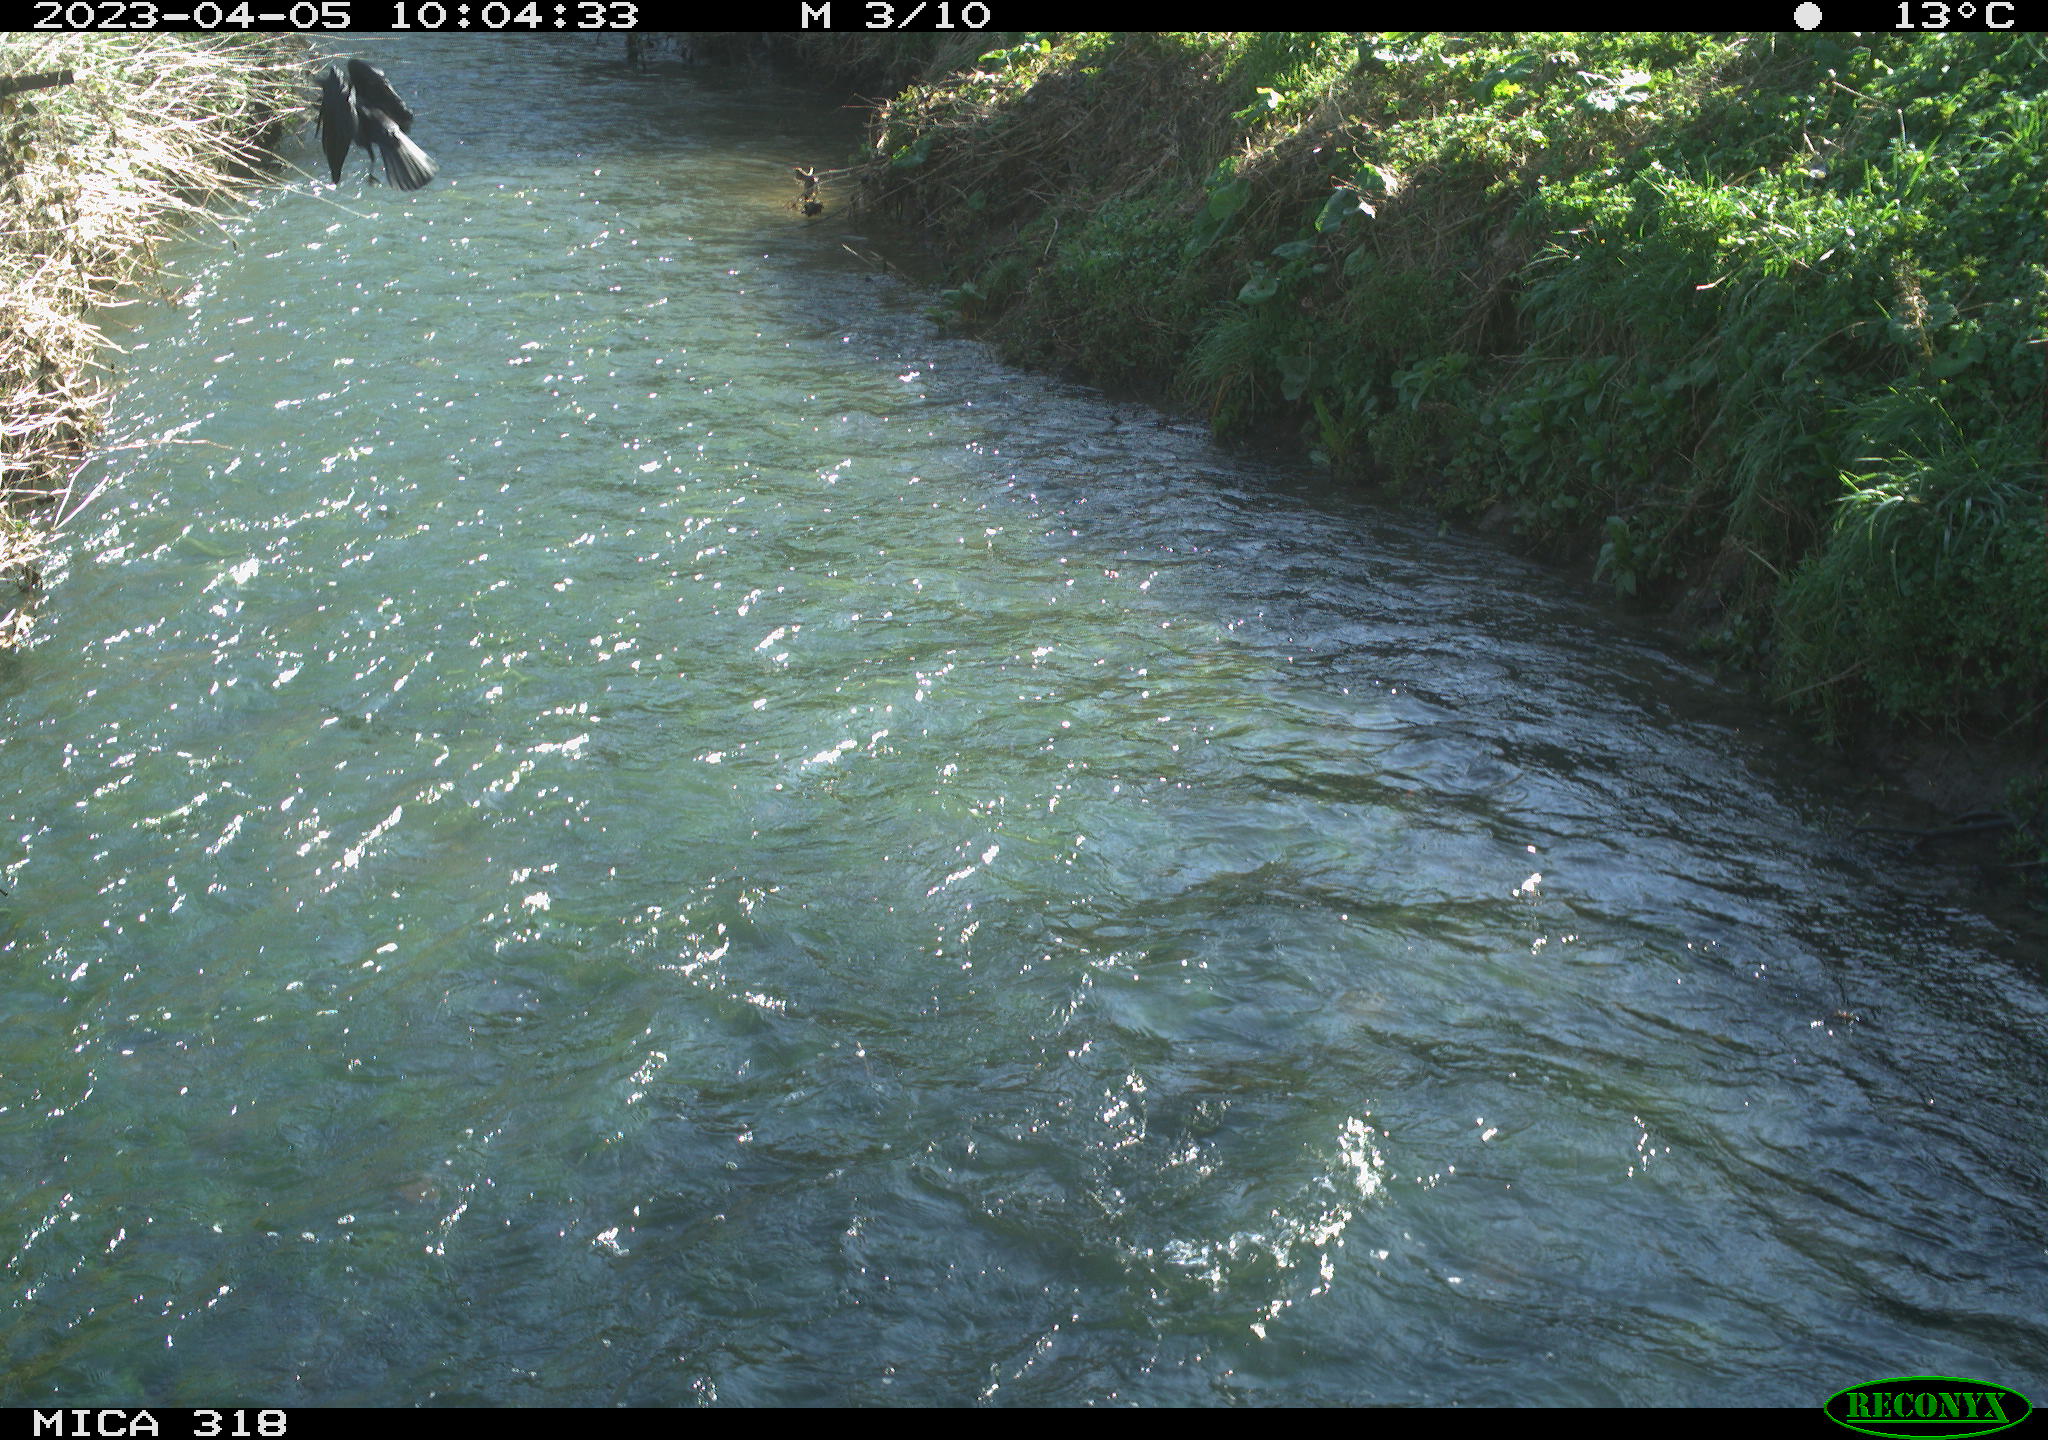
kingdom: Animalia
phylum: Chordata
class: Aves
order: Passeriformes
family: Corvidae
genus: Corvus
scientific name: Corvus corone
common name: Carrion crow
